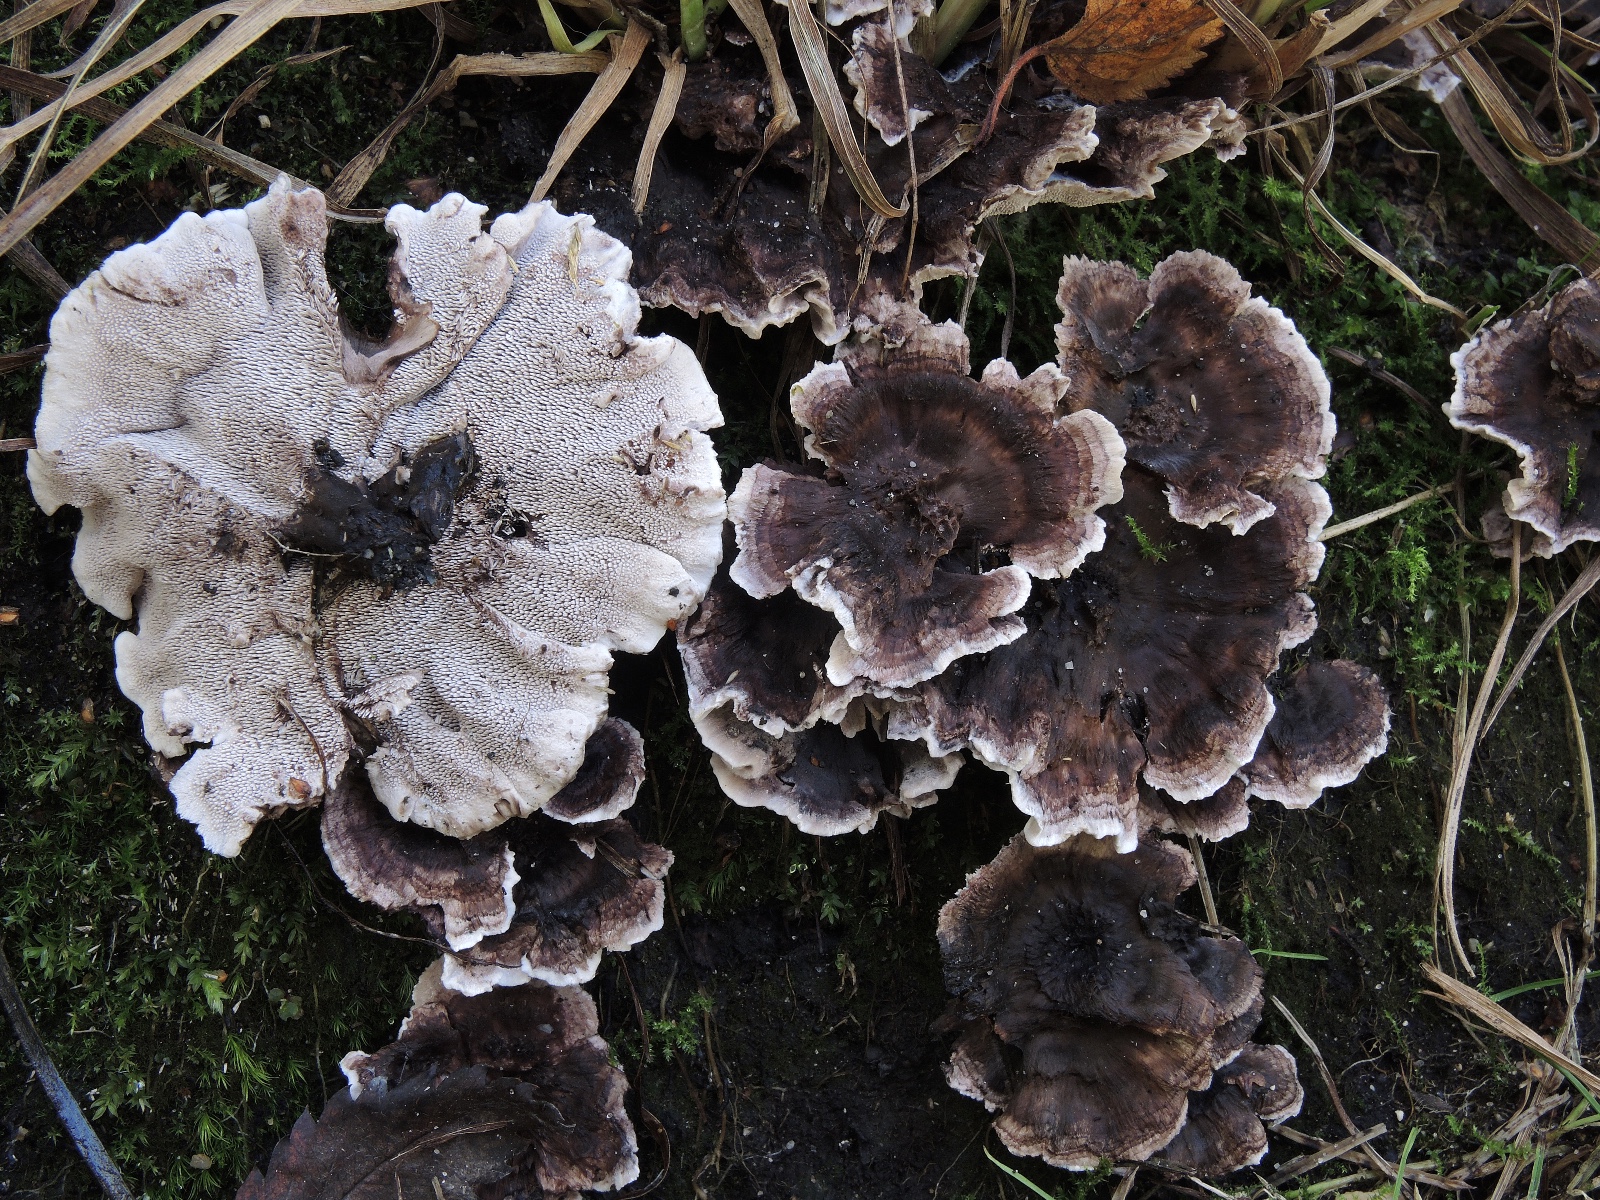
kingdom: Fungi
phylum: Basidiomycota
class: Agaricomycetes
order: Thelephorales
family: Thelephoraceae
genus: Phellodon
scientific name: Phellodon tomentosus
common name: vellugtende duftpigsvamp
